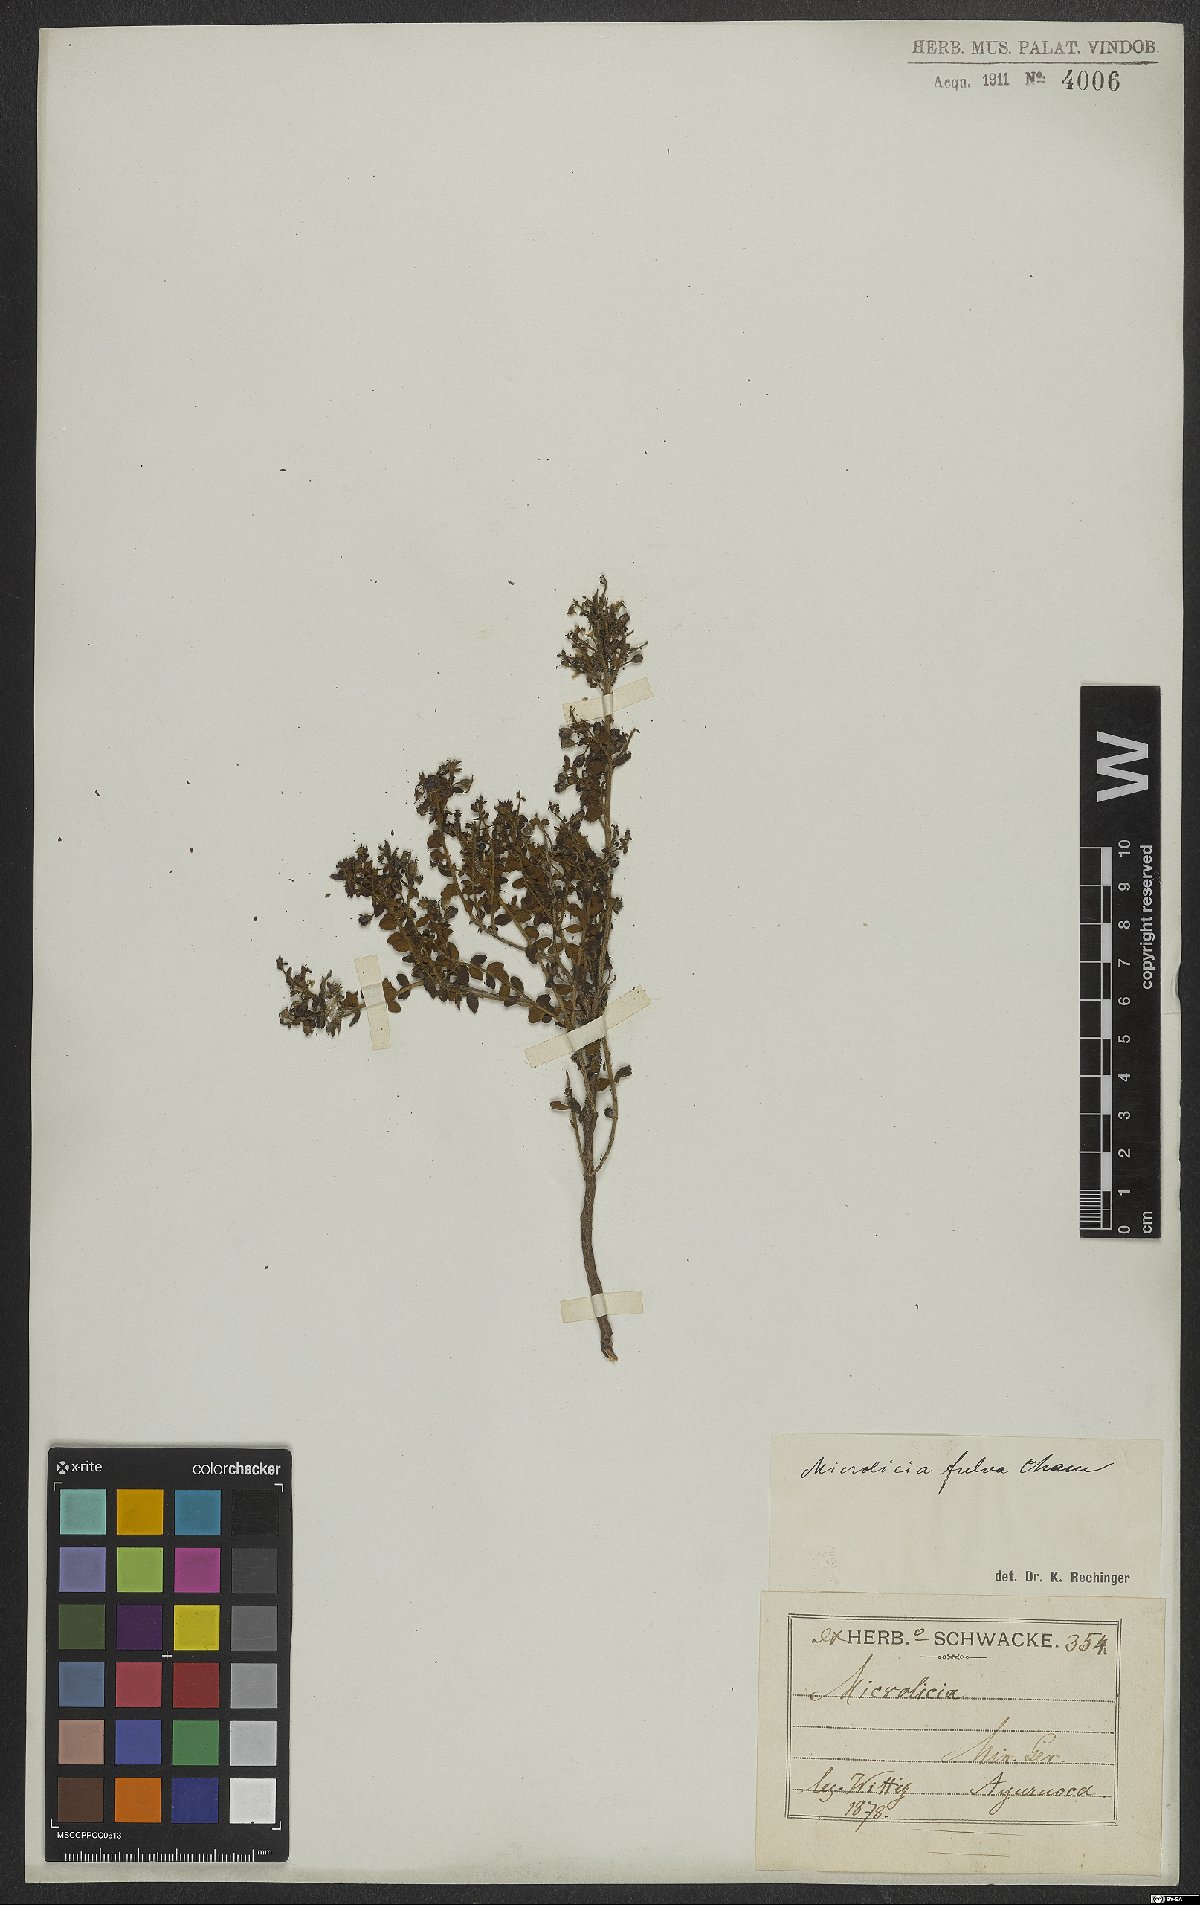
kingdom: Plantae
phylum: Tracheophyta
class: Magnoliopsida
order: Myrtales
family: Melastomataceae
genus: Microlicia
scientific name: Microlicia fulva
